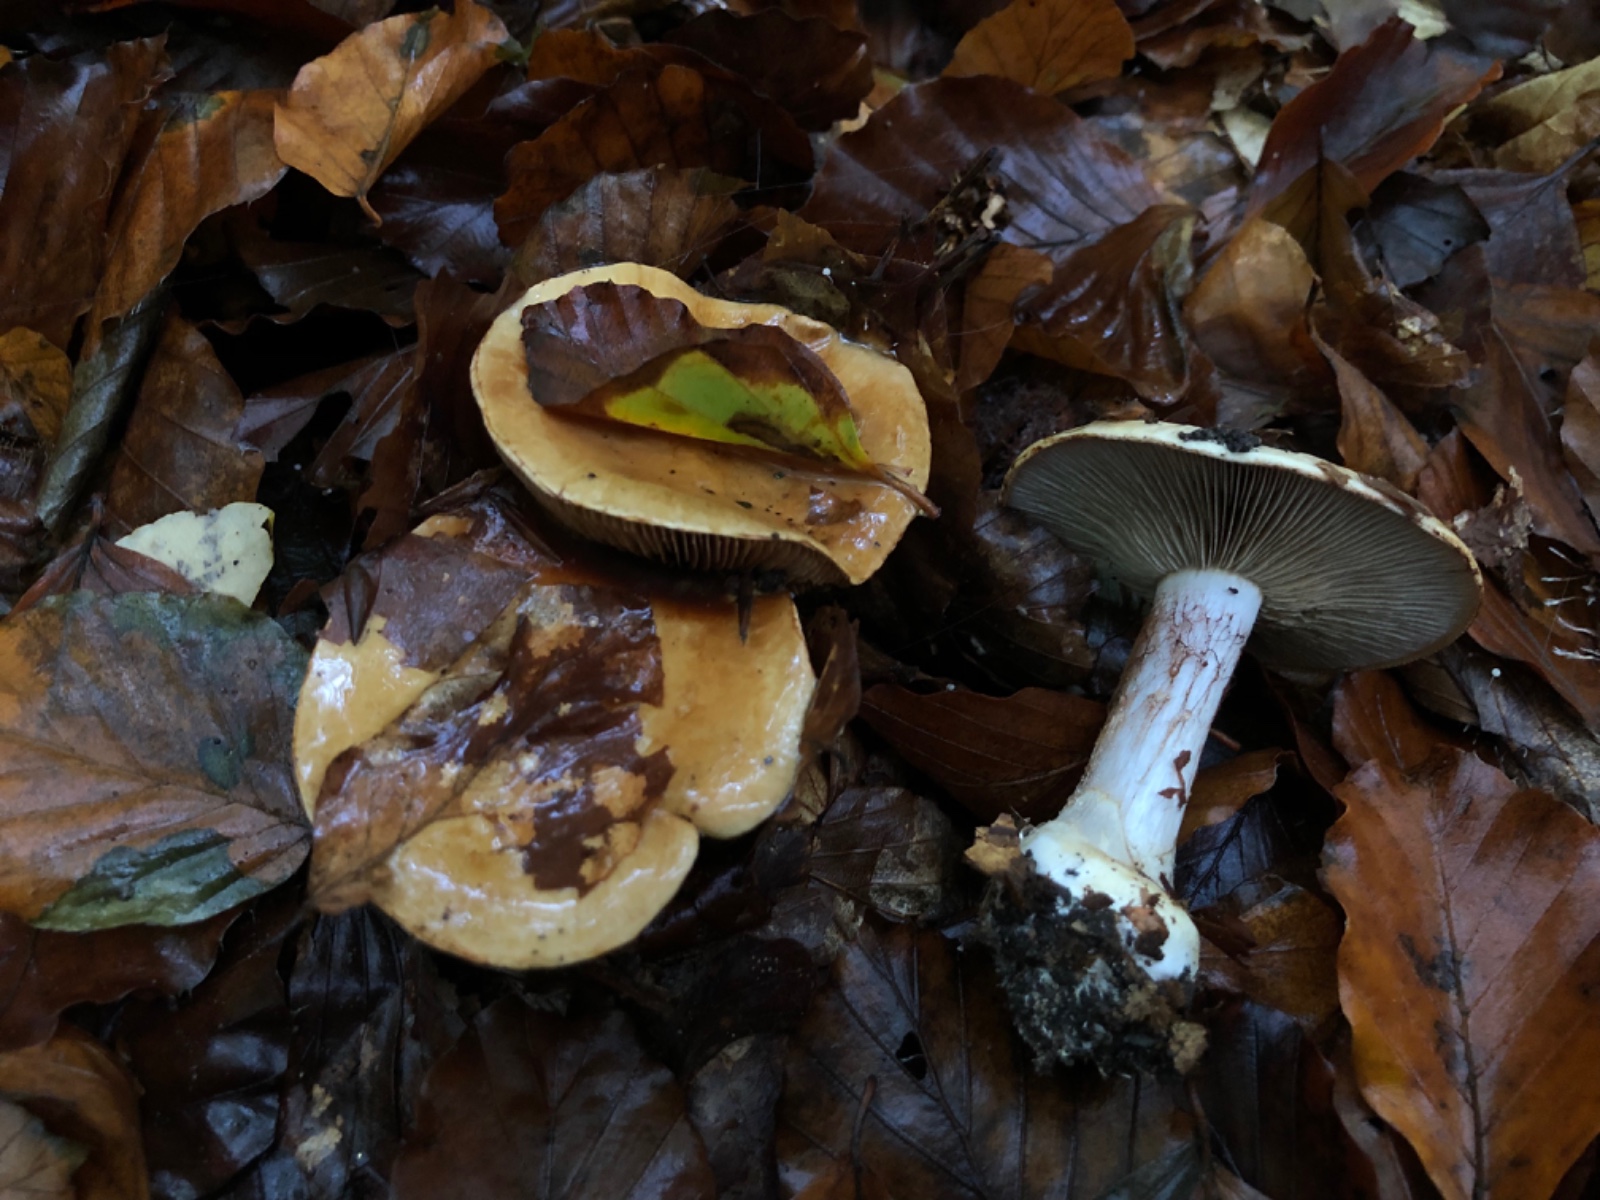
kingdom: Fungi
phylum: Basidiomycota
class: Agaricomycetes
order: Agaricales
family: Cortinariaceae
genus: Cortinarius
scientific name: Cortinarius anserinus
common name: bøge-slørhat
